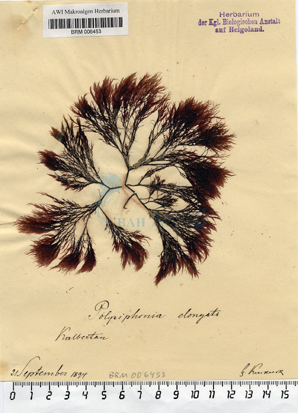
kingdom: Plantae
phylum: Rhodophyta
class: Florideophyceae
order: Ceramiales
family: Rhodomelaceae
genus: Vertebrata
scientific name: Vertebrata spec
